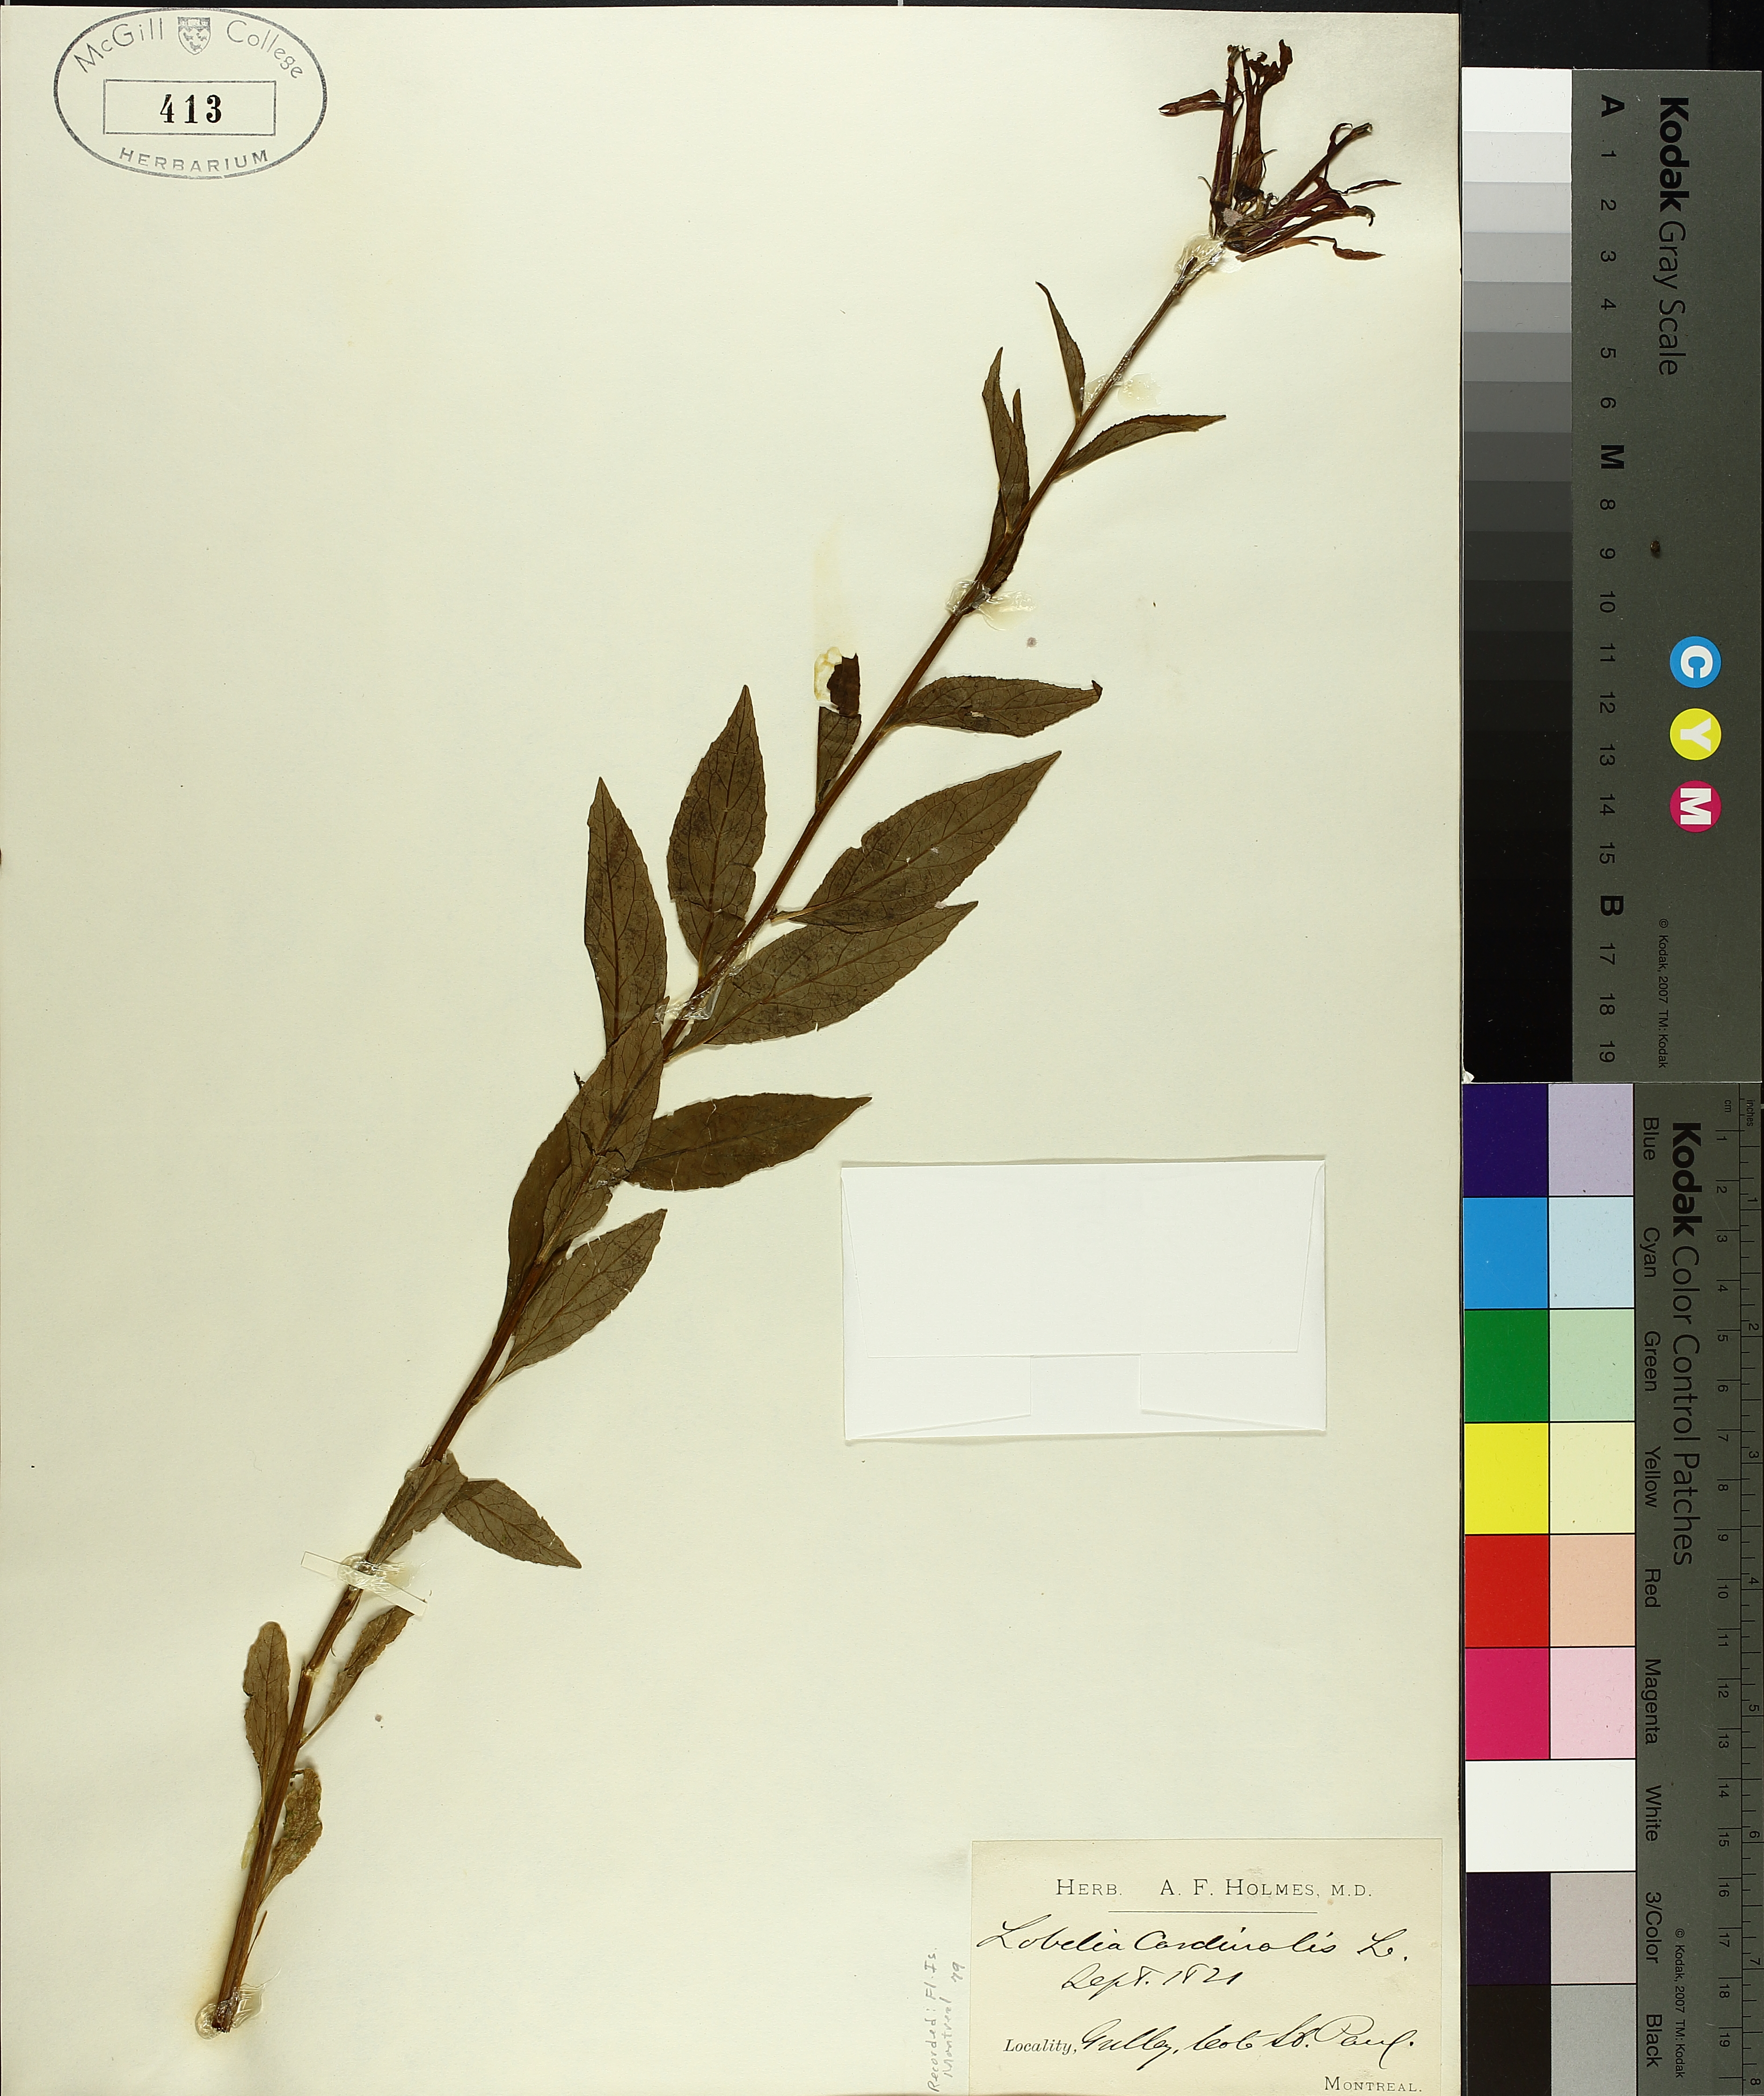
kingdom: Plantae
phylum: Tracheophyta
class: Magnoliopsida
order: Asterales
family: Campanulaceae
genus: Lobelia
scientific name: Lobelia cardinalis
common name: Cardinal flower
